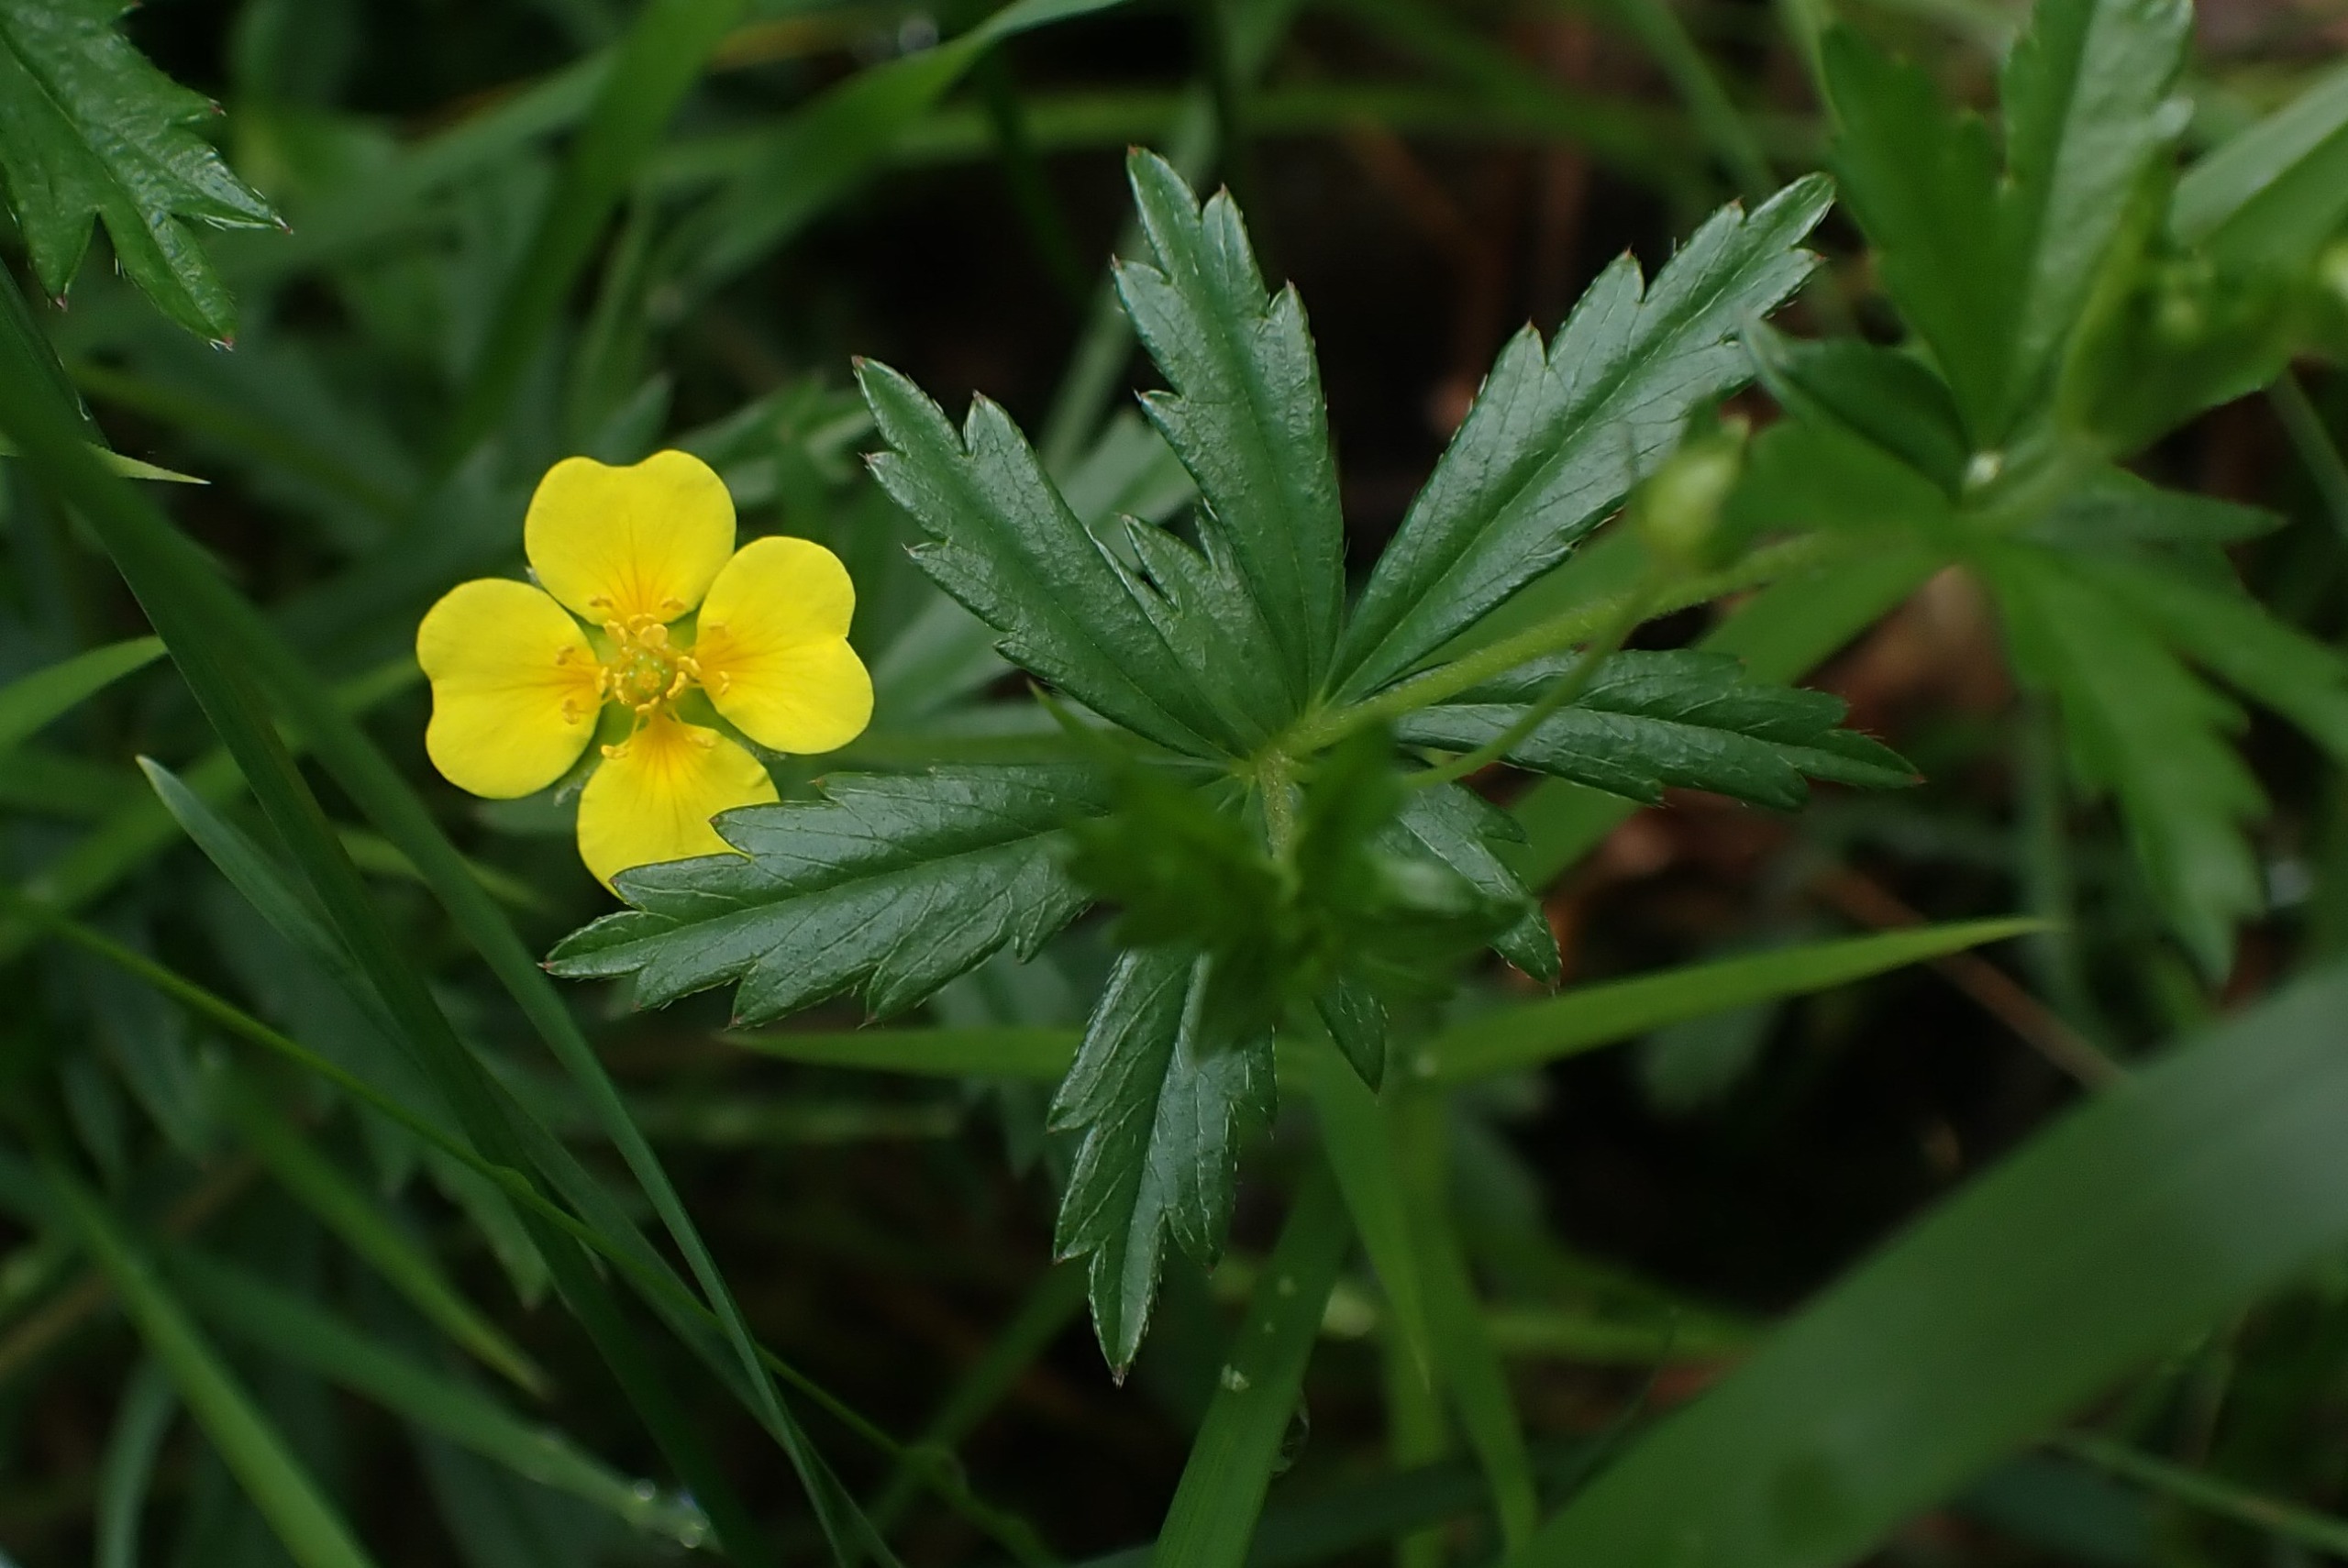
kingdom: Plantae
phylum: Tracheophyta
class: Magnoliopsida
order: Rosales
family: Rosaceae
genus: Potentilla
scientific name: Potentilla erecta
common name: Tormentil
